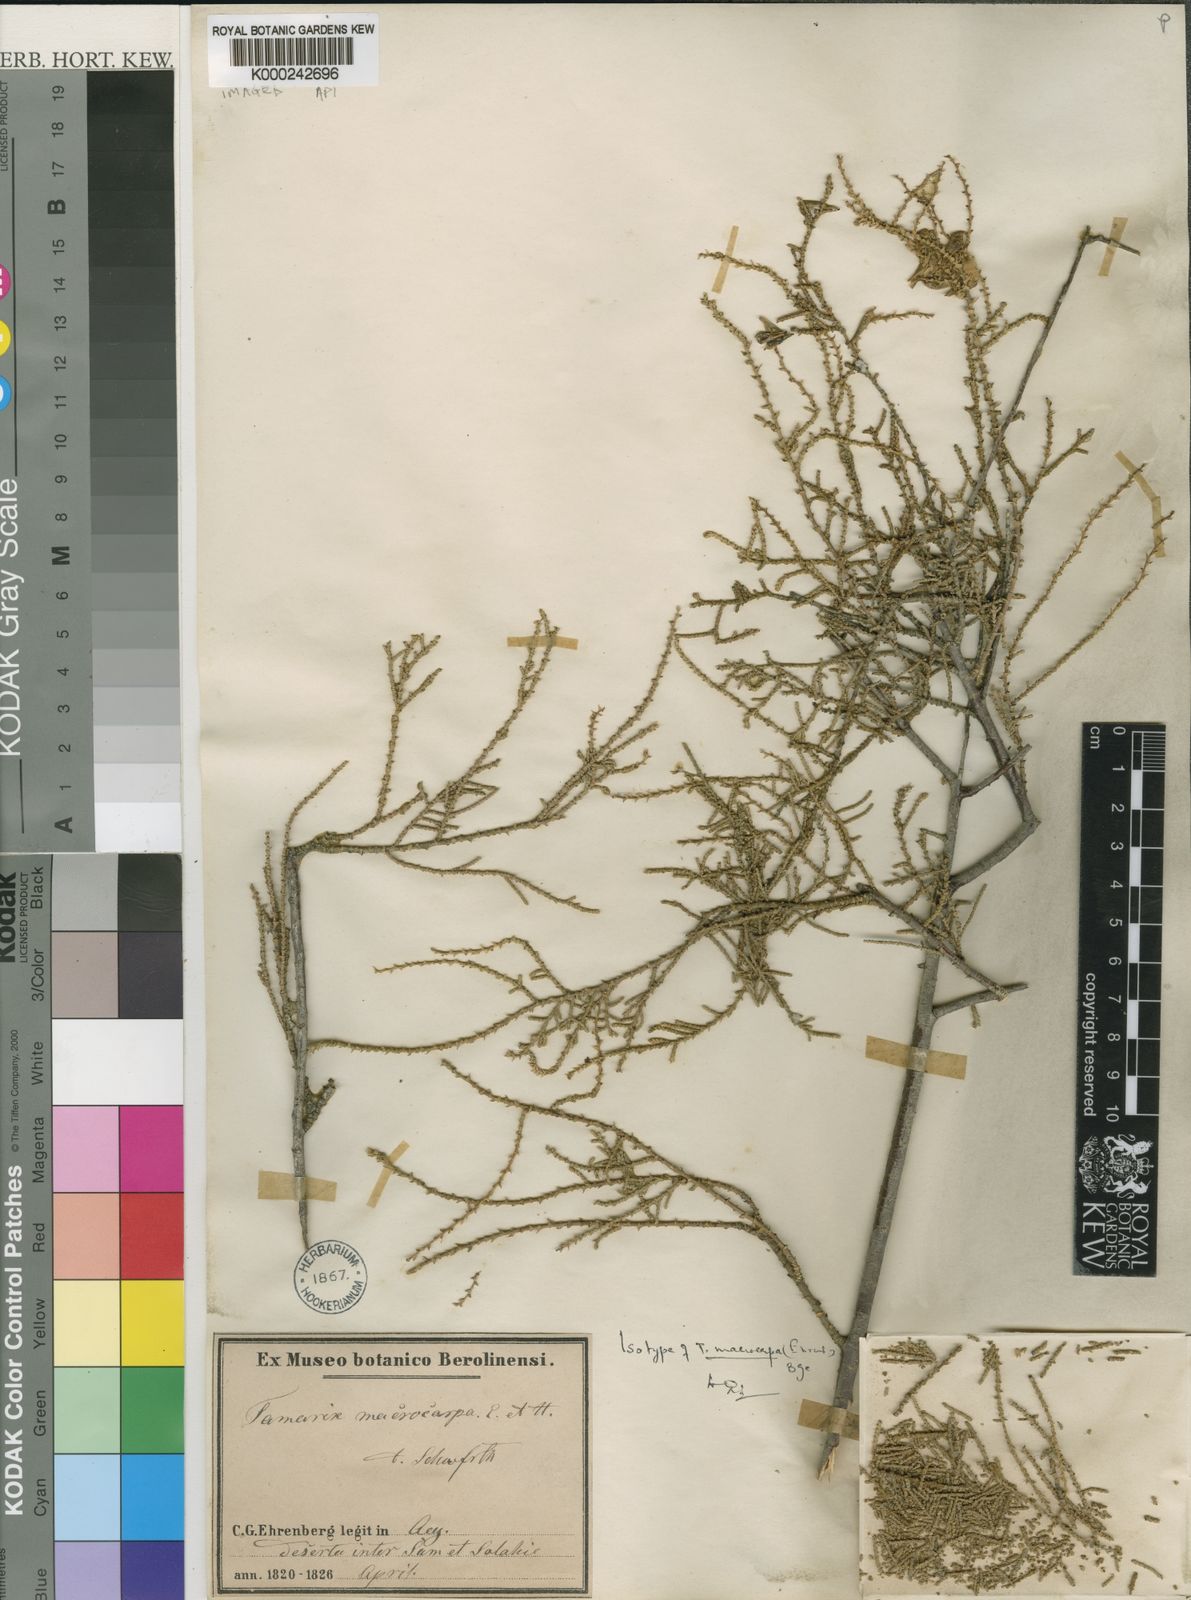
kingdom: Plantae
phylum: Tracheophyta
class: Magnoliopsida
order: Caryophyllales
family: Tamaricaceae
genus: Tamarix
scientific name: Tamarix
